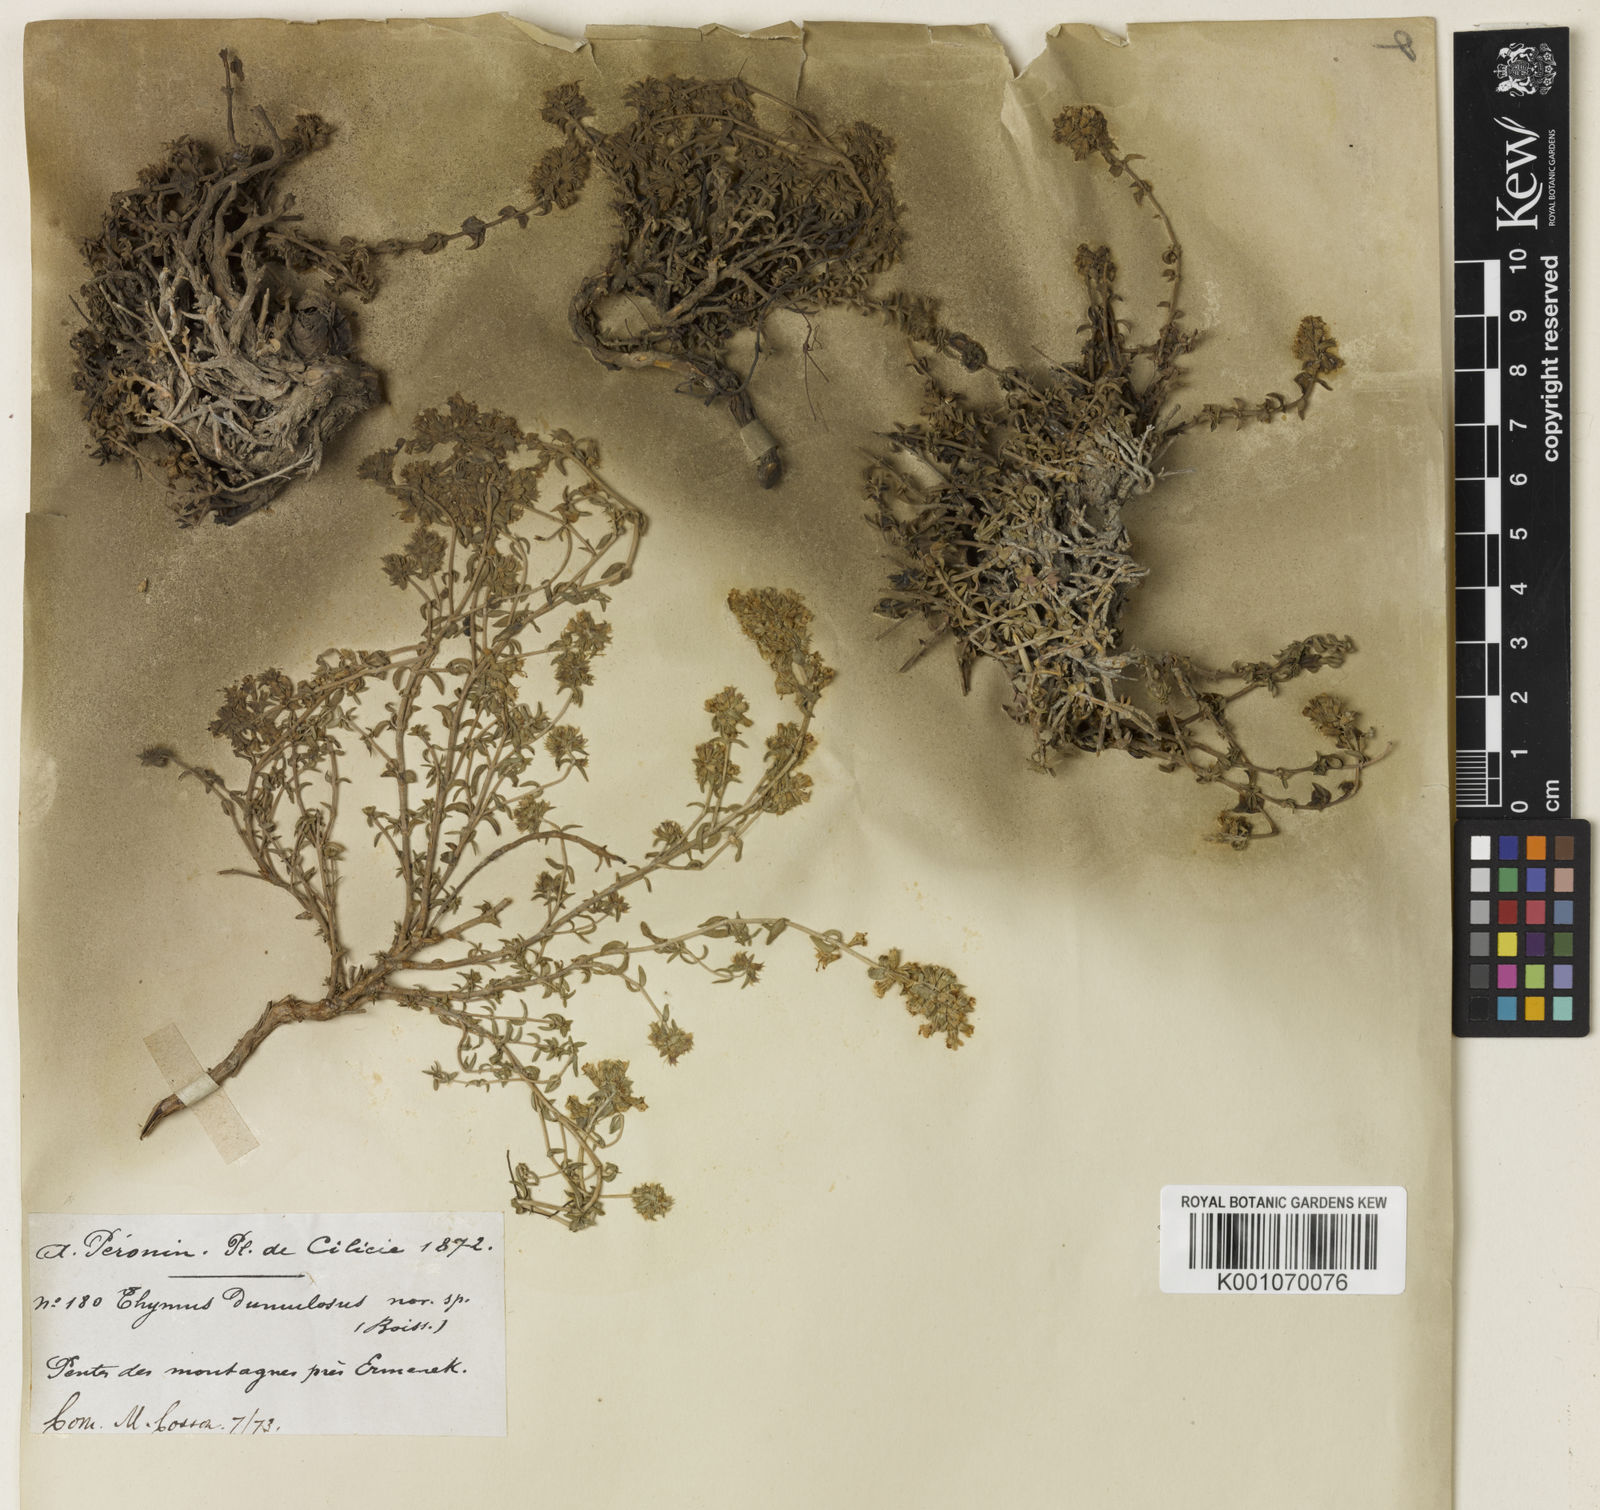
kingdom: Plantae
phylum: Tracheophyta
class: Magnoliopsida
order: Lamiales
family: Lamiaceae
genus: Thymus
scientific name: Thymus
